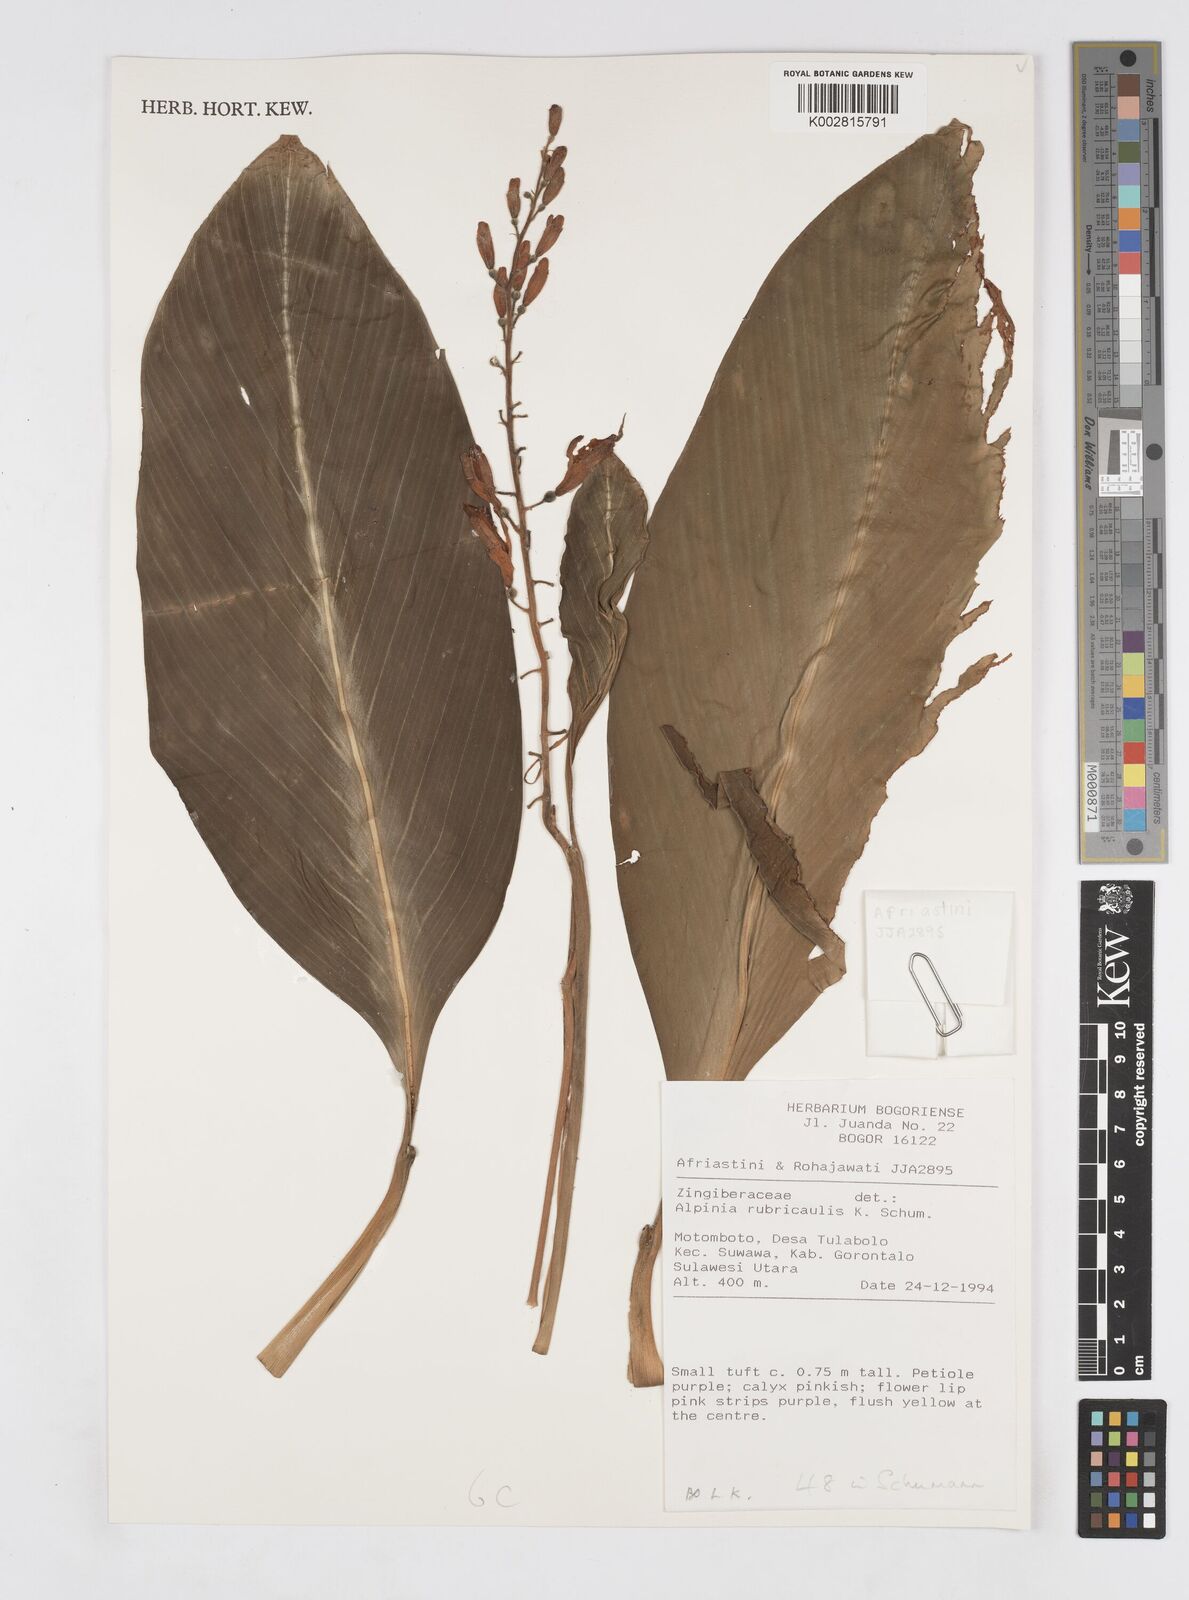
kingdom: Plantae
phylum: Tracheophyta
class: Liliopsida
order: Zingiberales
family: Zingiberaceae
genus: Alpinia
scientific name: Alpinia rubricaulis
